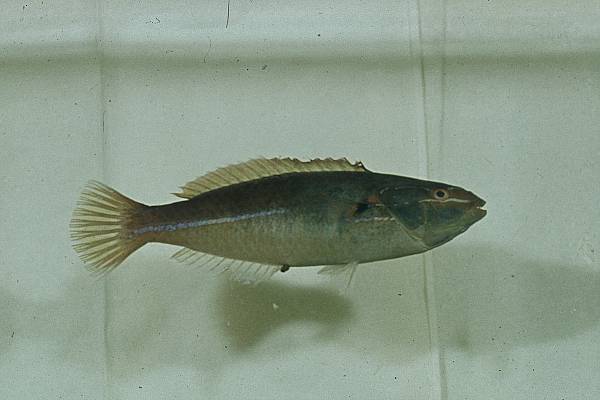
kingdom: Animalia
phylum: Chordata
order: Perciformes
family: Labridae
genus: Stethojulis
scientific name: Stethojulis interrupta
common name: Cutribbon wrasse
